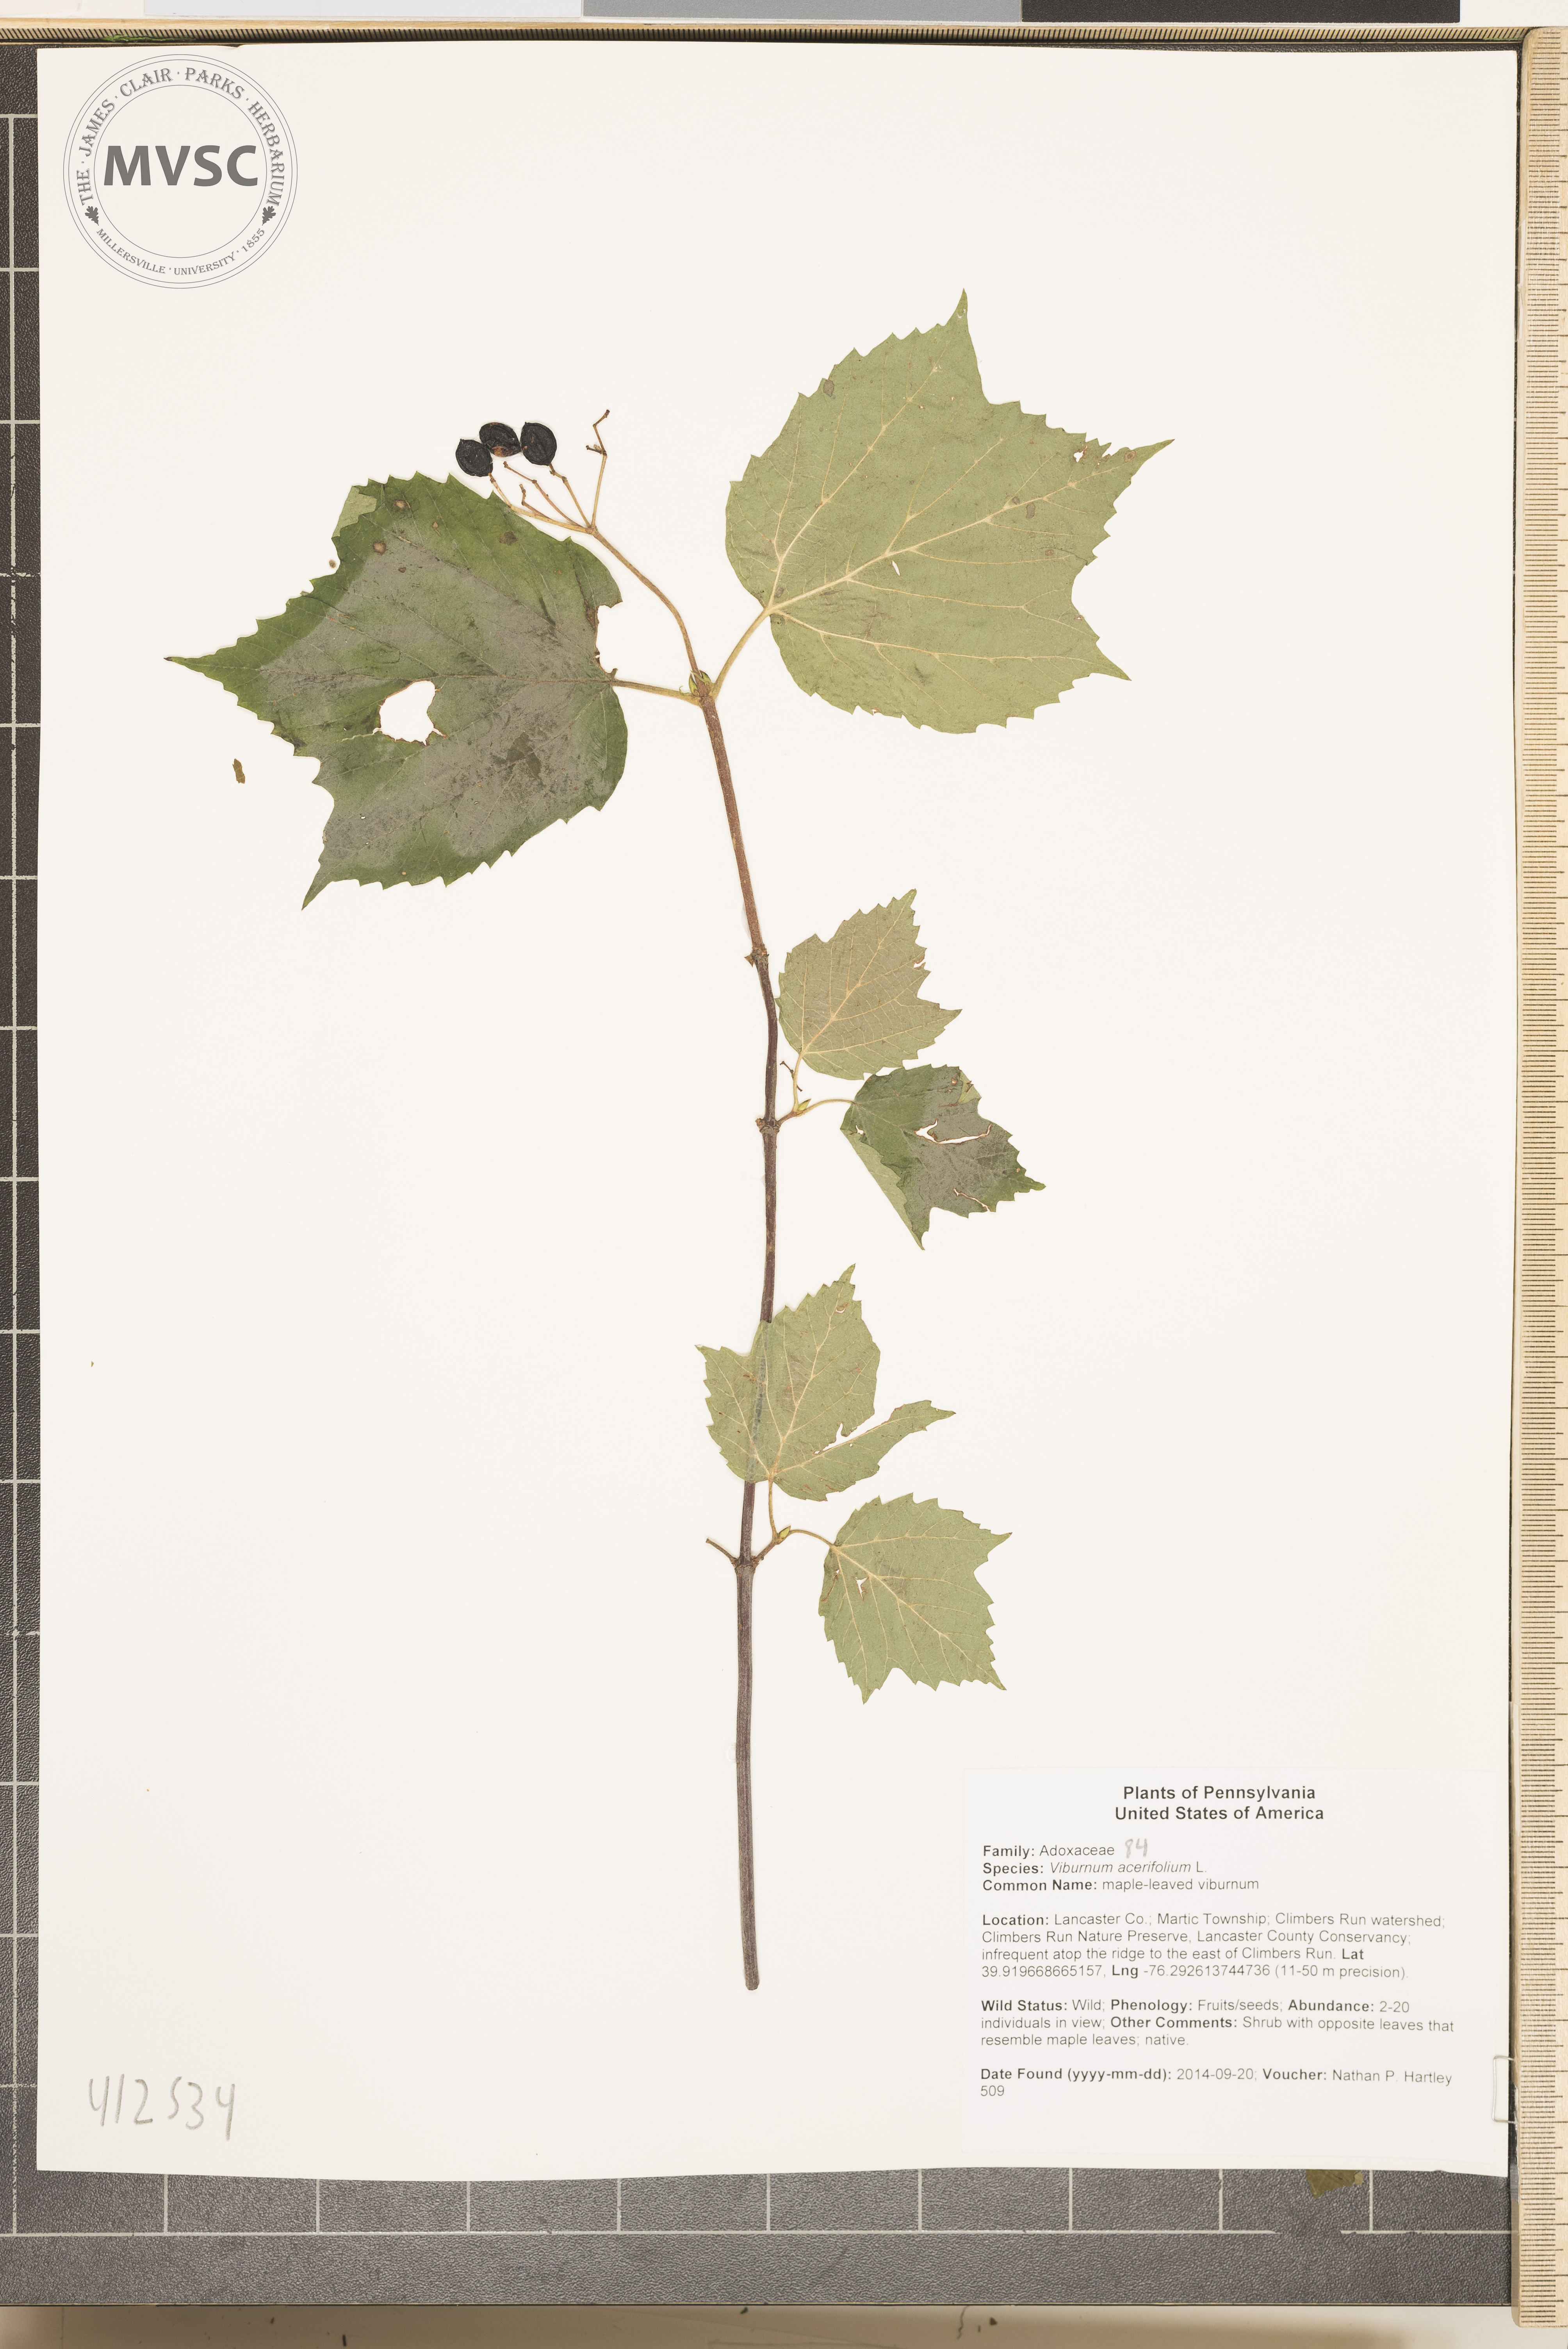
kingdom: Plantae
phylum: Tracheophyta
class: Magnoliopsida
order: Dipsacales
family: Viburnaceae
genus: Viburnum
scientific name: Viburnum acerifolium
